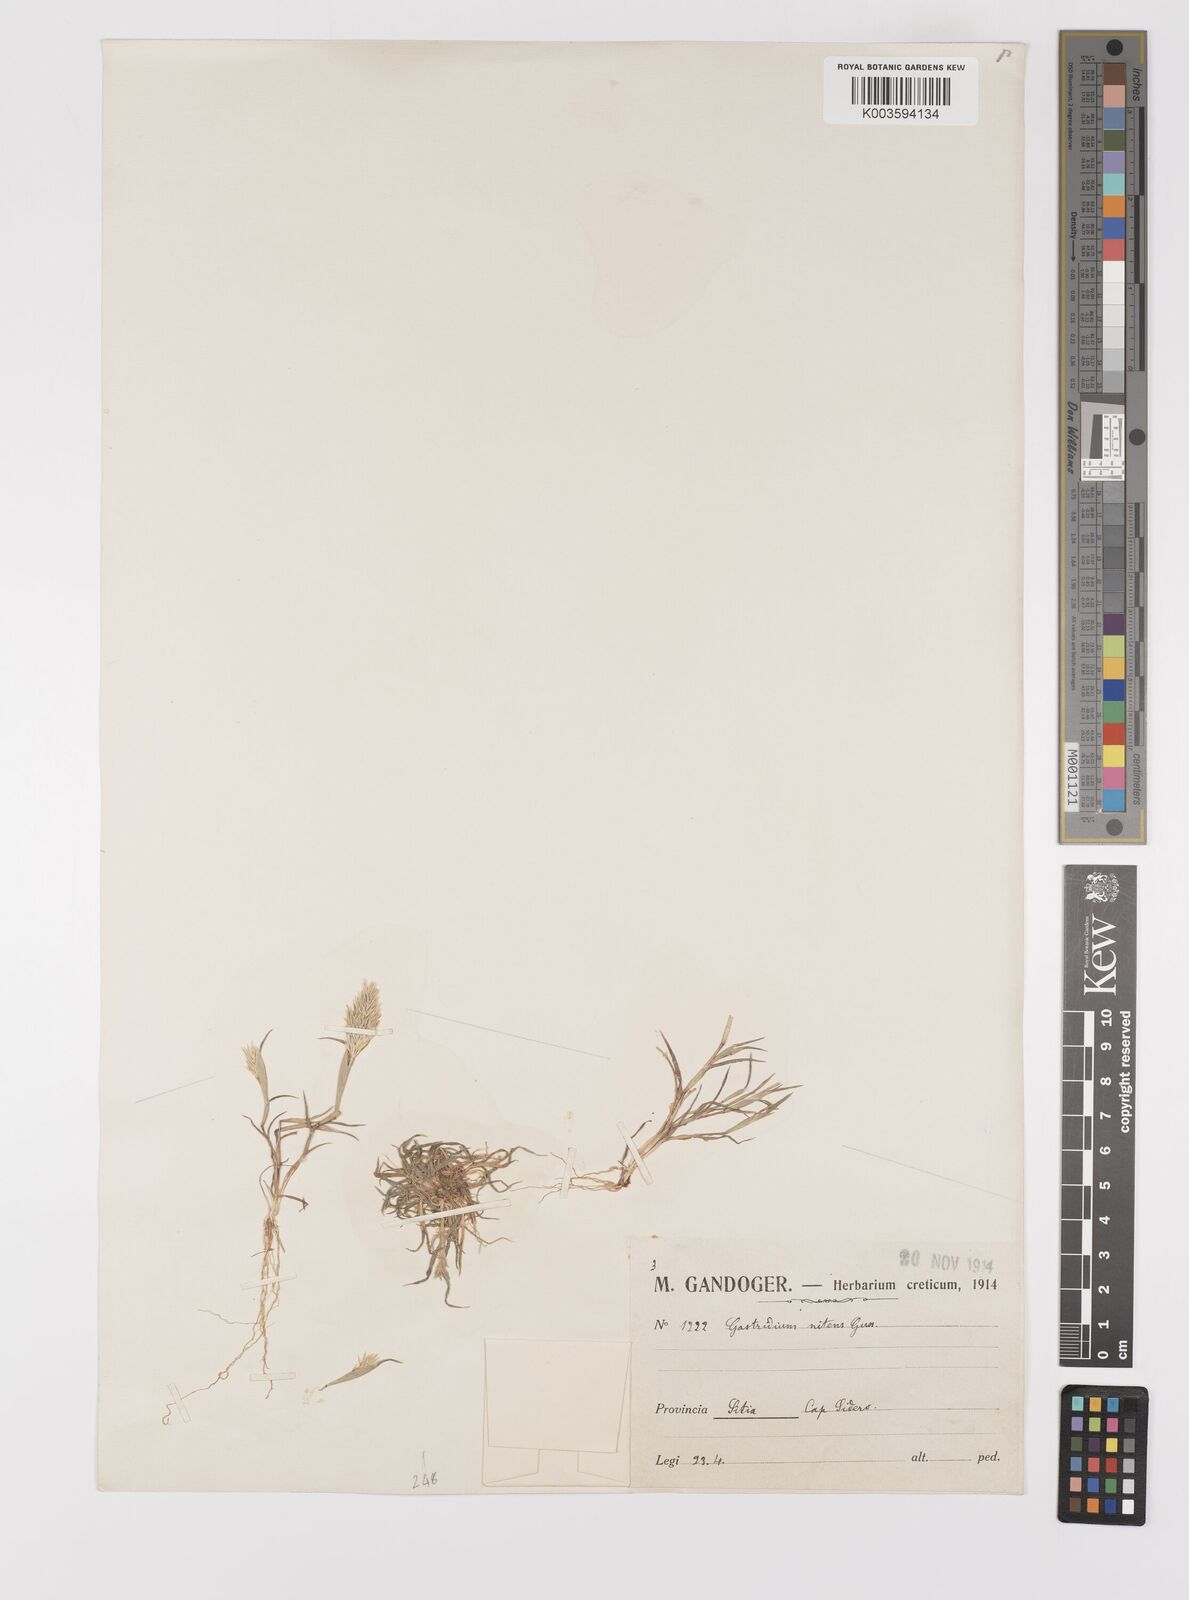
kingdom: Plantae
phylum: Tracheophyta
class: Liliopsida
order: Poales
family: Poaceae
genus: Triplachne
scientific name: Triplachne nitens
